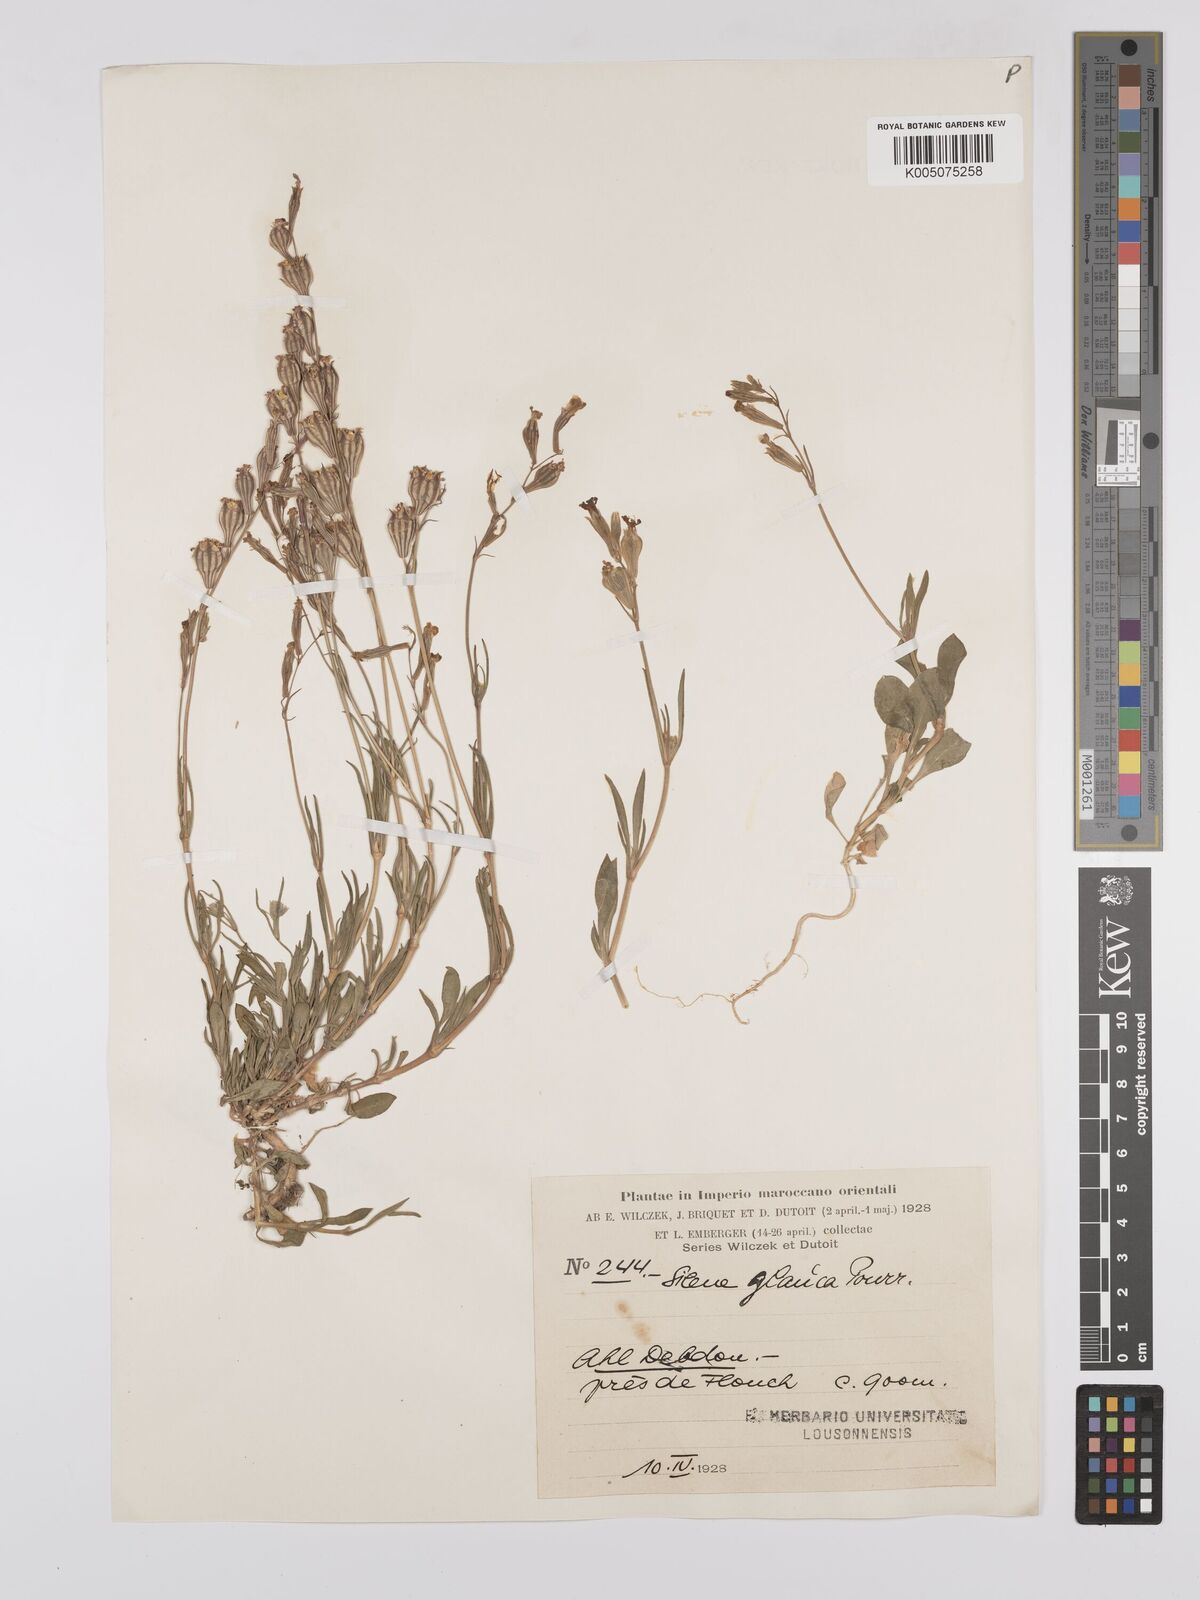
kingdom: Plantae
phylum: Tracheophyta
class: Magnoliopsida
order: Caryophyllales
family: Caryophyllaceae
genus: Silene
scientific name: Silene secundiflora
